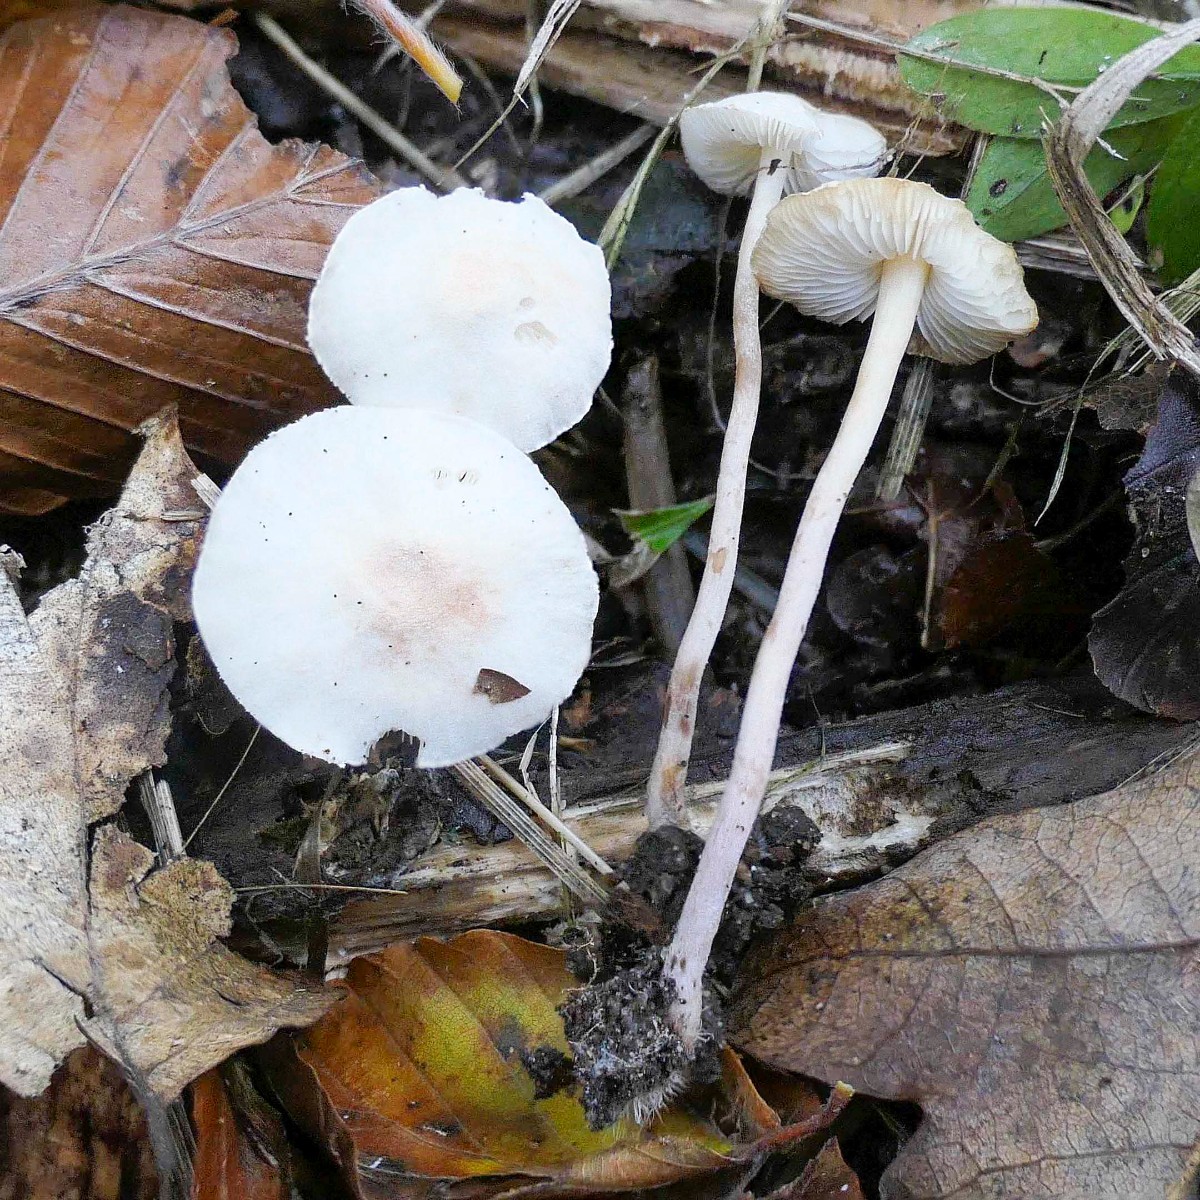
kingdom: Fungi
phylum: Basidiomycota
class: Agaricomycetes
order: Agaricales
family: Agaricaceae
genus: Cystolepiota
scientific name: Cystolepiota seminuda
